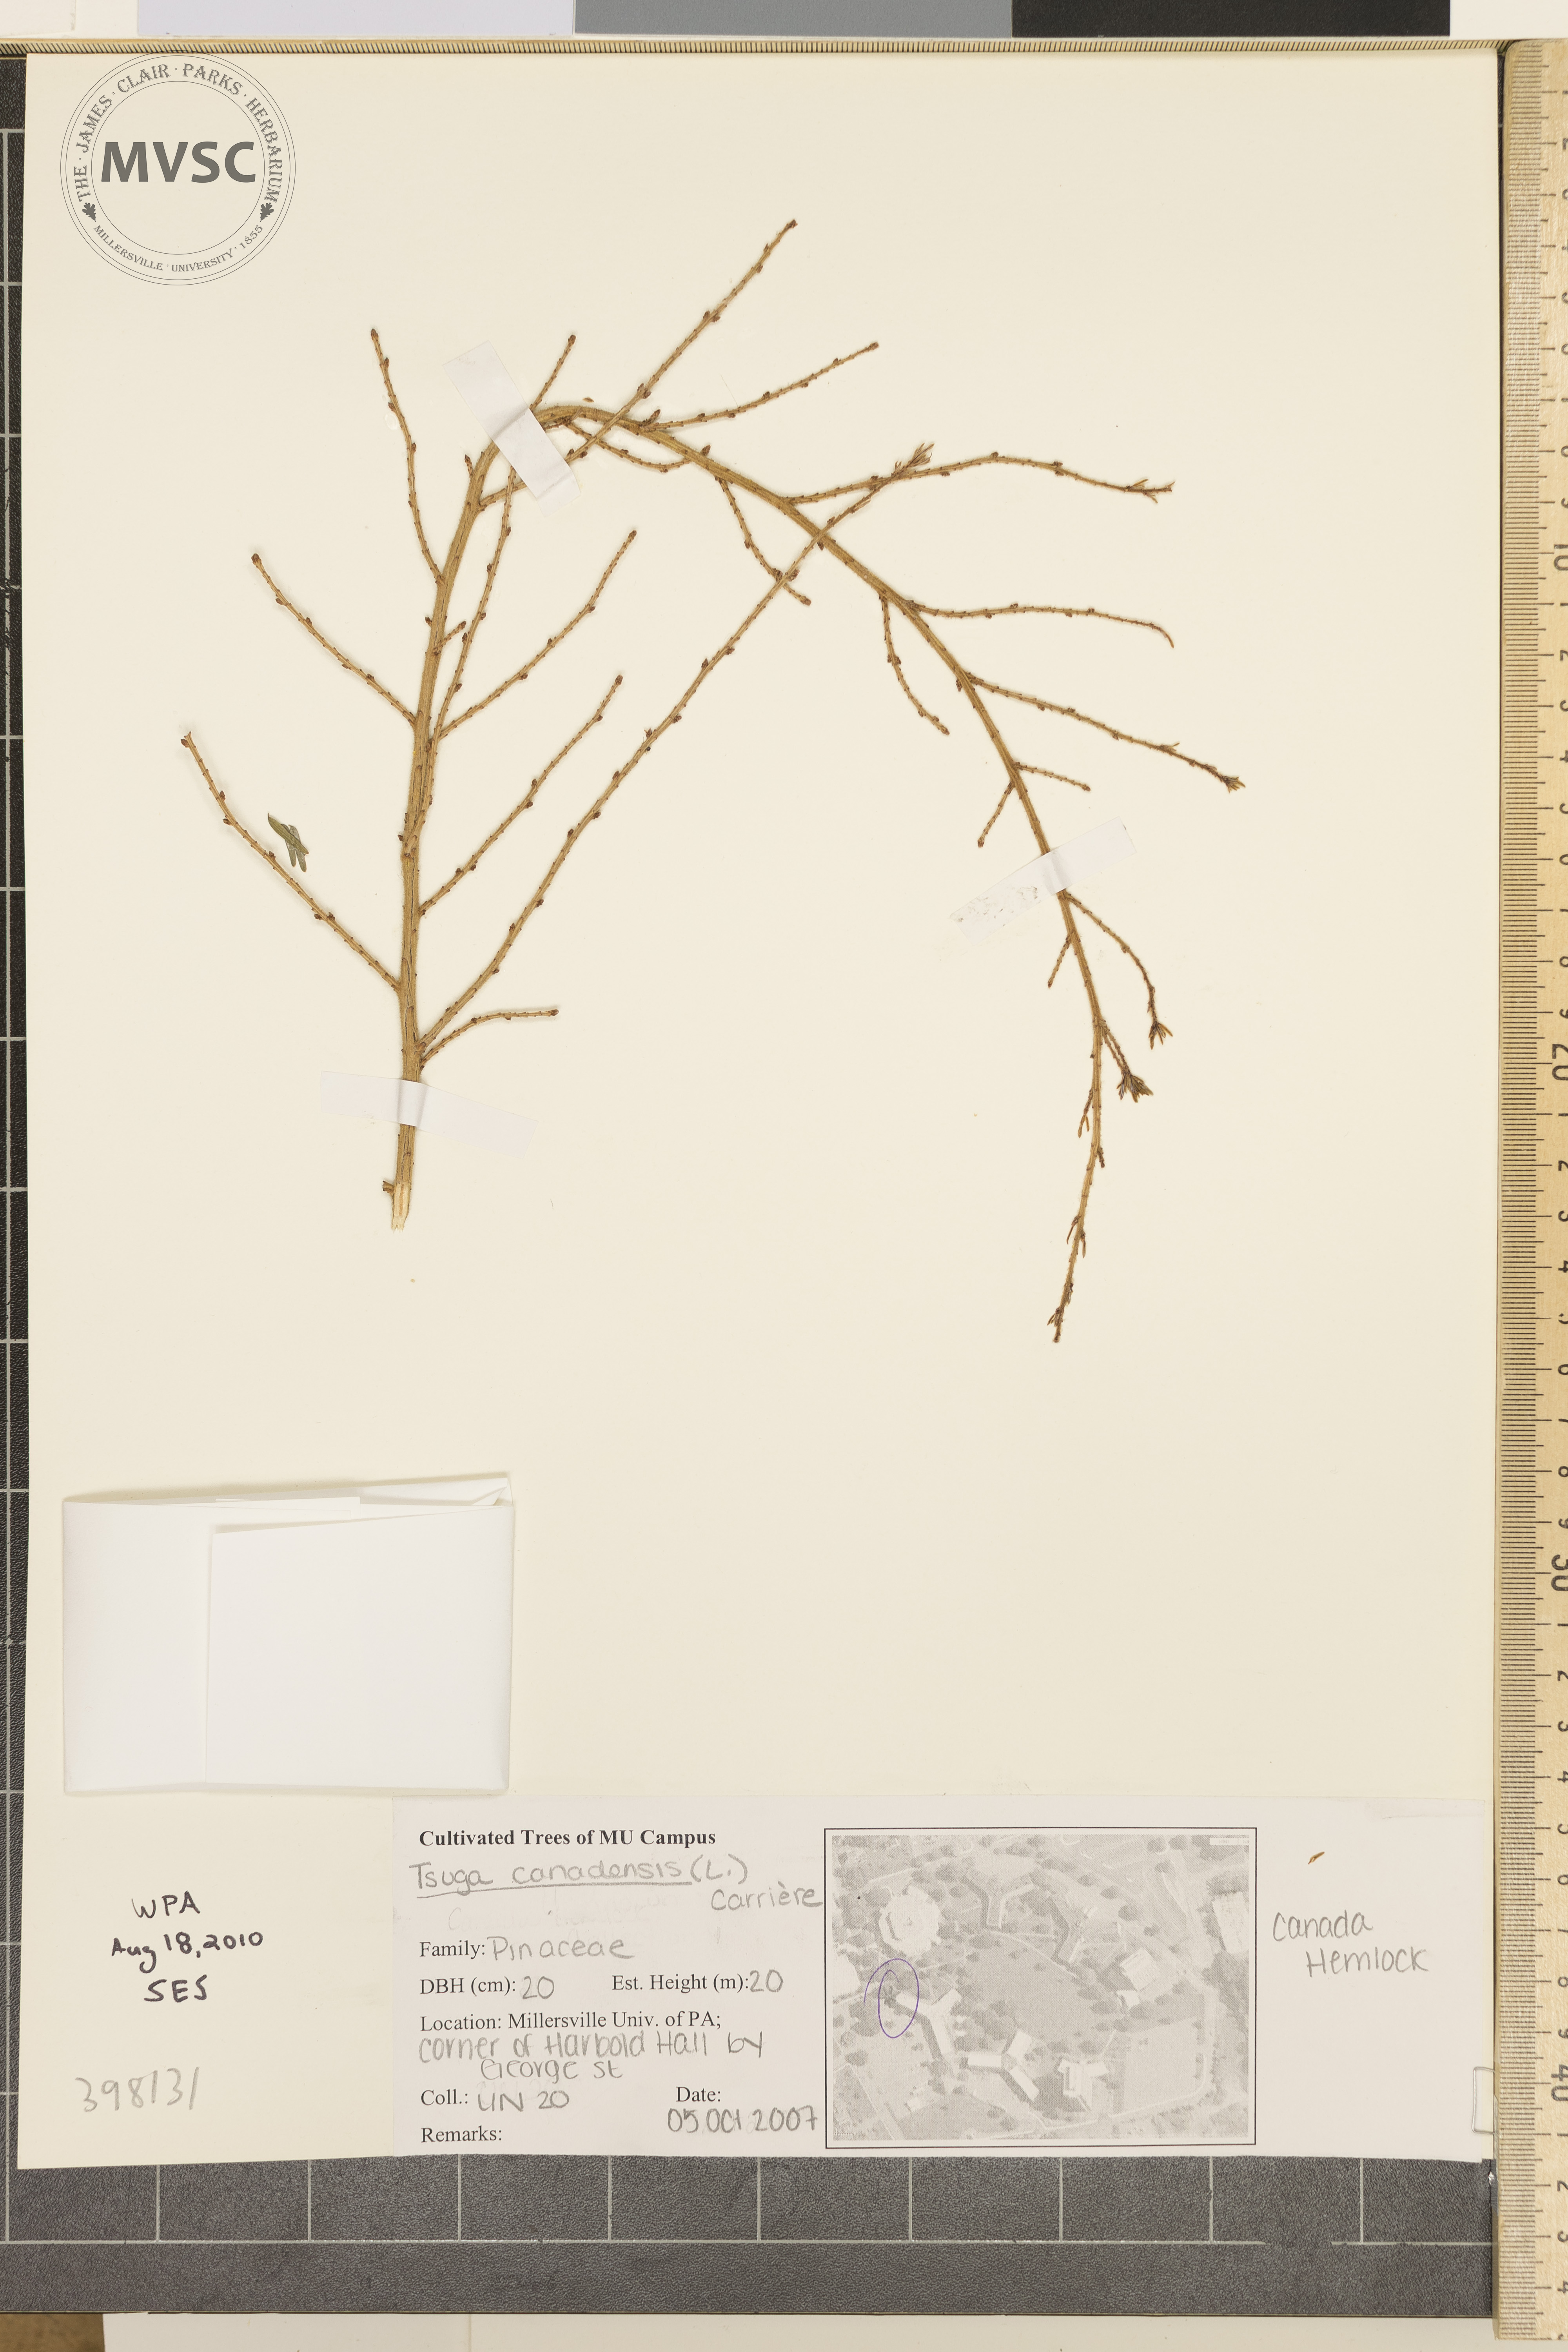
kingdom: Plantae
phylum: Tracheophyta
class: Pinopsida
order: Pinales
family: Pinaceae
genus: Tsuga
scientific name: Tsuga canadensis
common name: Canada hemlock
